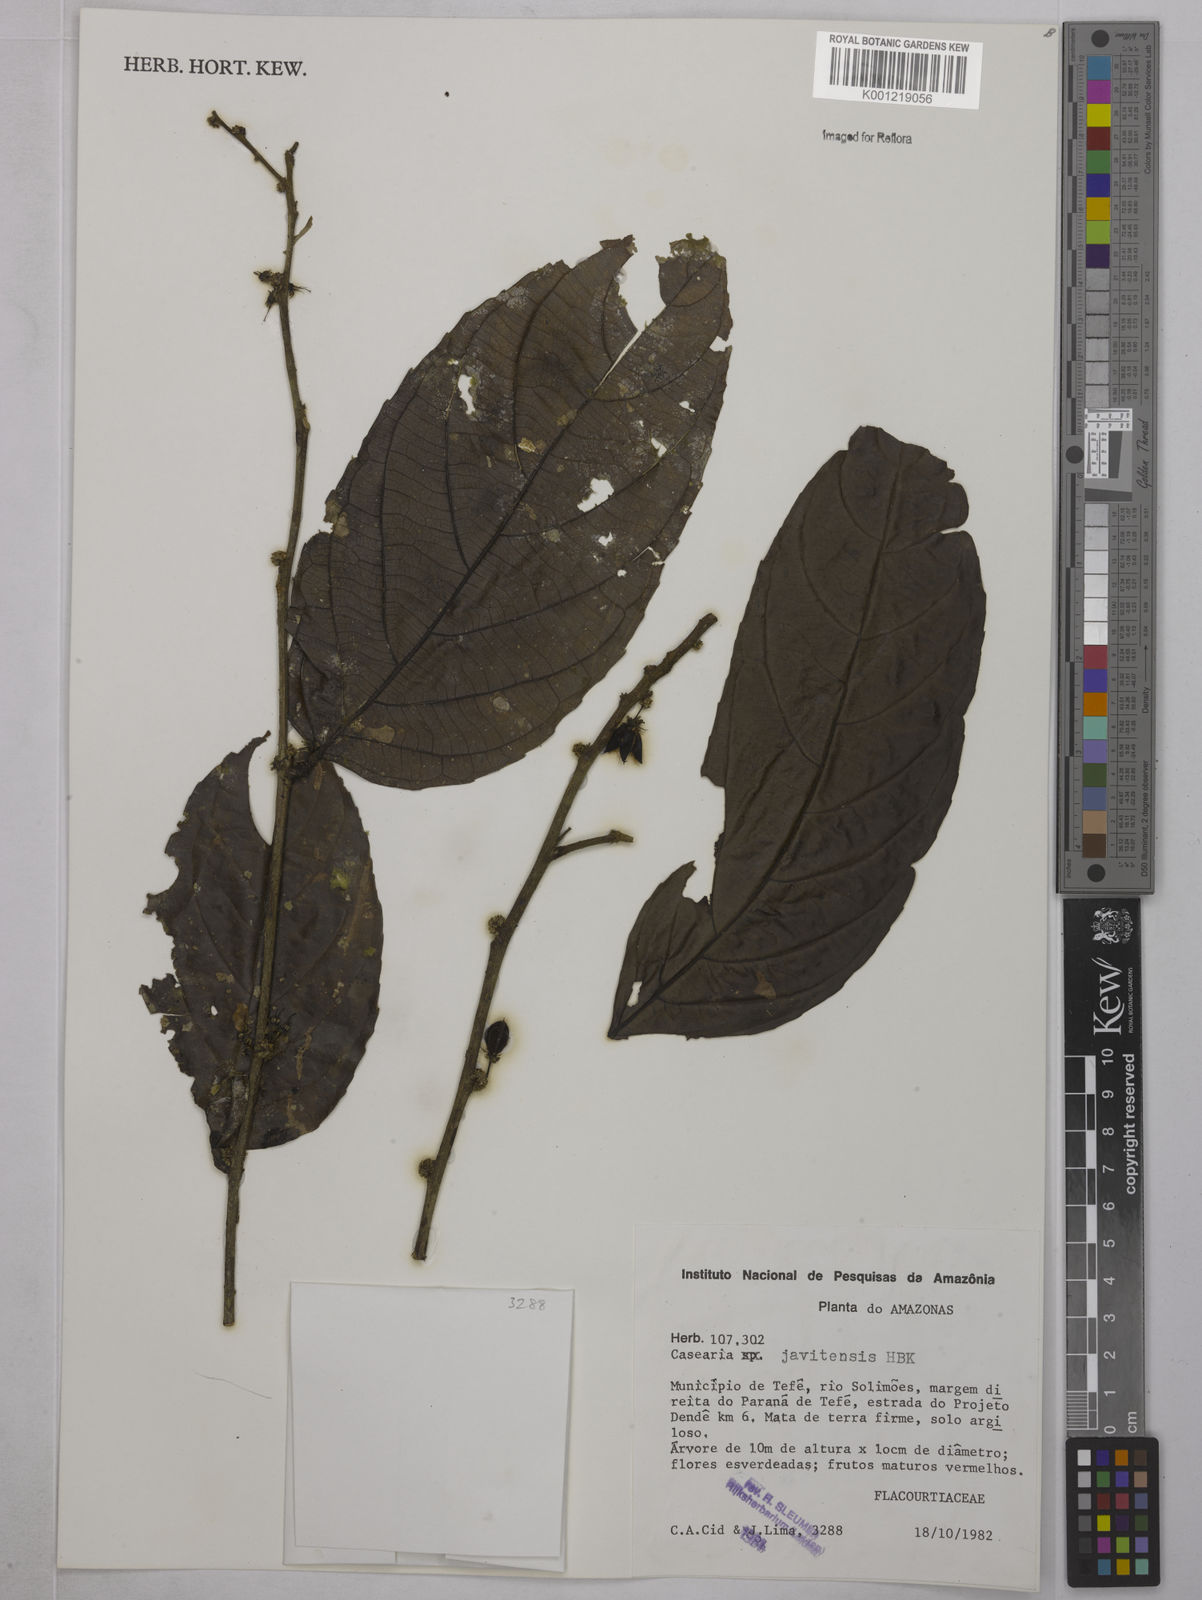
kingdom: Plantae
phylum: Tracheophyta
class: Magnoliopsida
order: Malpighiales
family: Salicaceae
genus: Piparea
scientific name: Piparea multiflora
